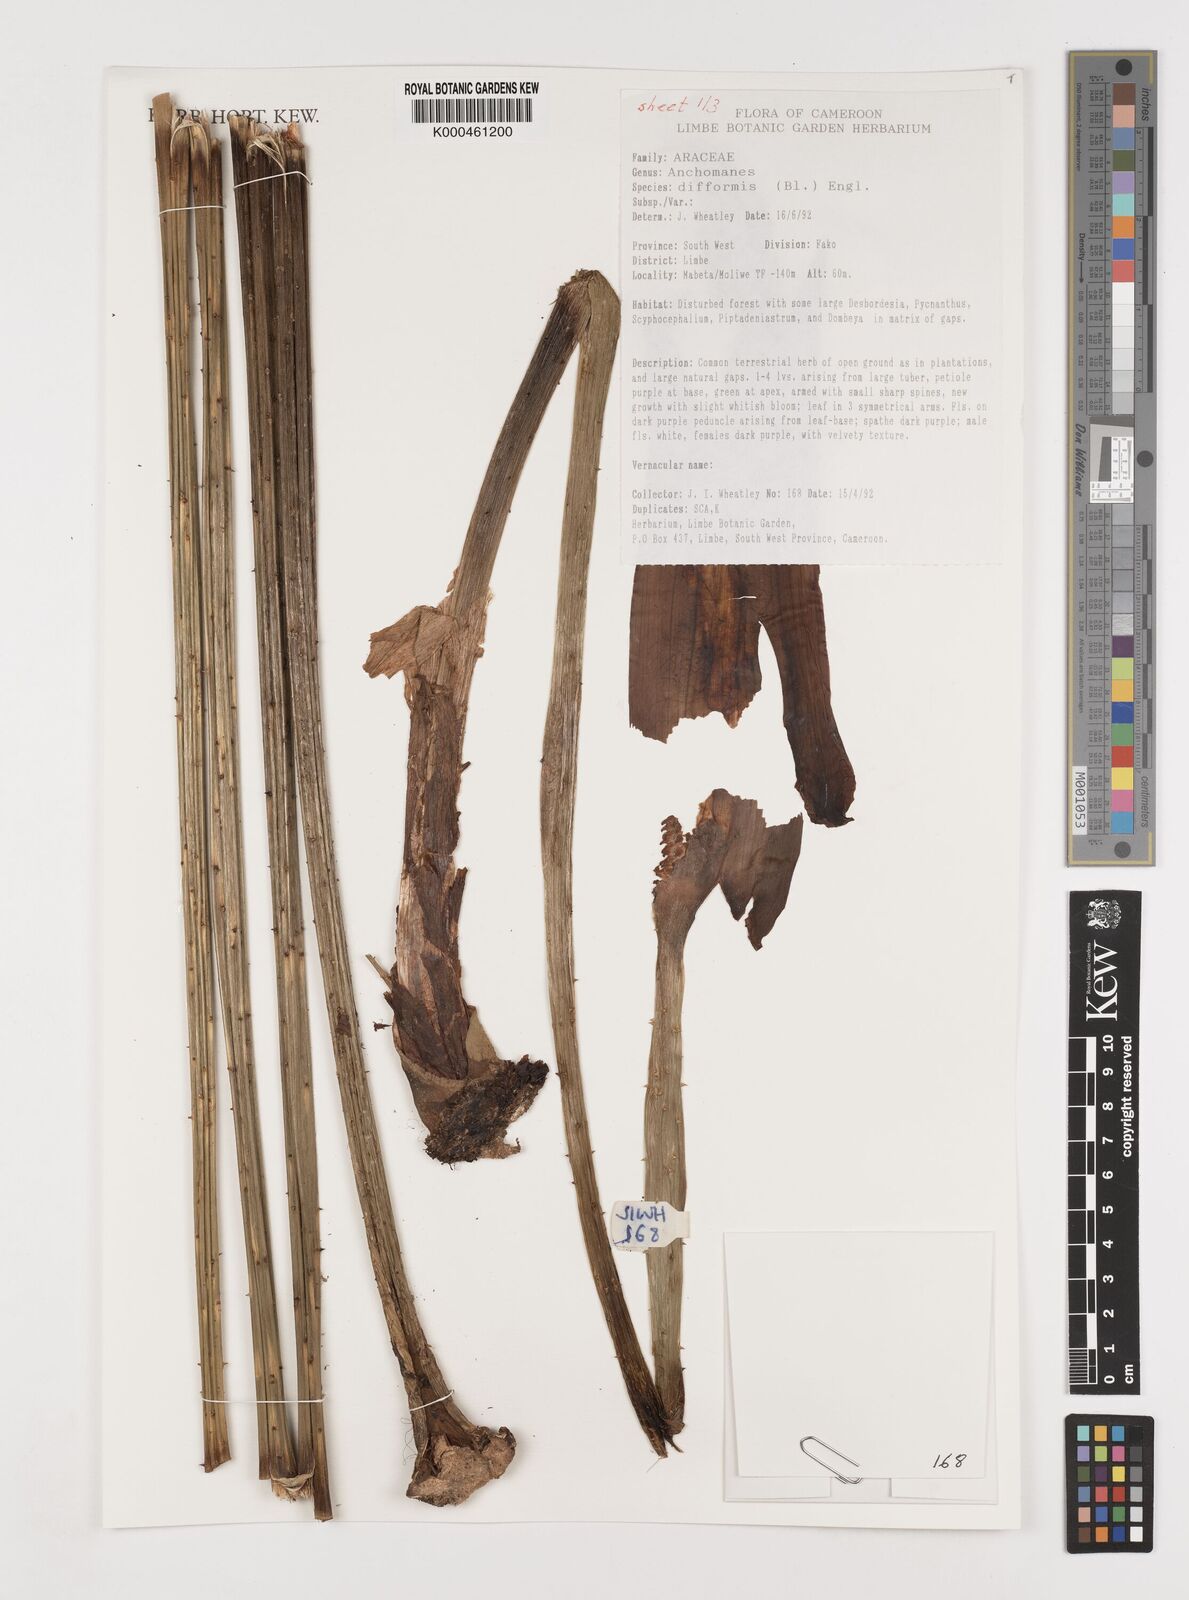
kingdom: Plantae
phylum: Tracheophyta
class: Liliopsida
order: Alismatales
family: Araceae
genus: Anchomanes
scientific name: Anchomanes difformis
